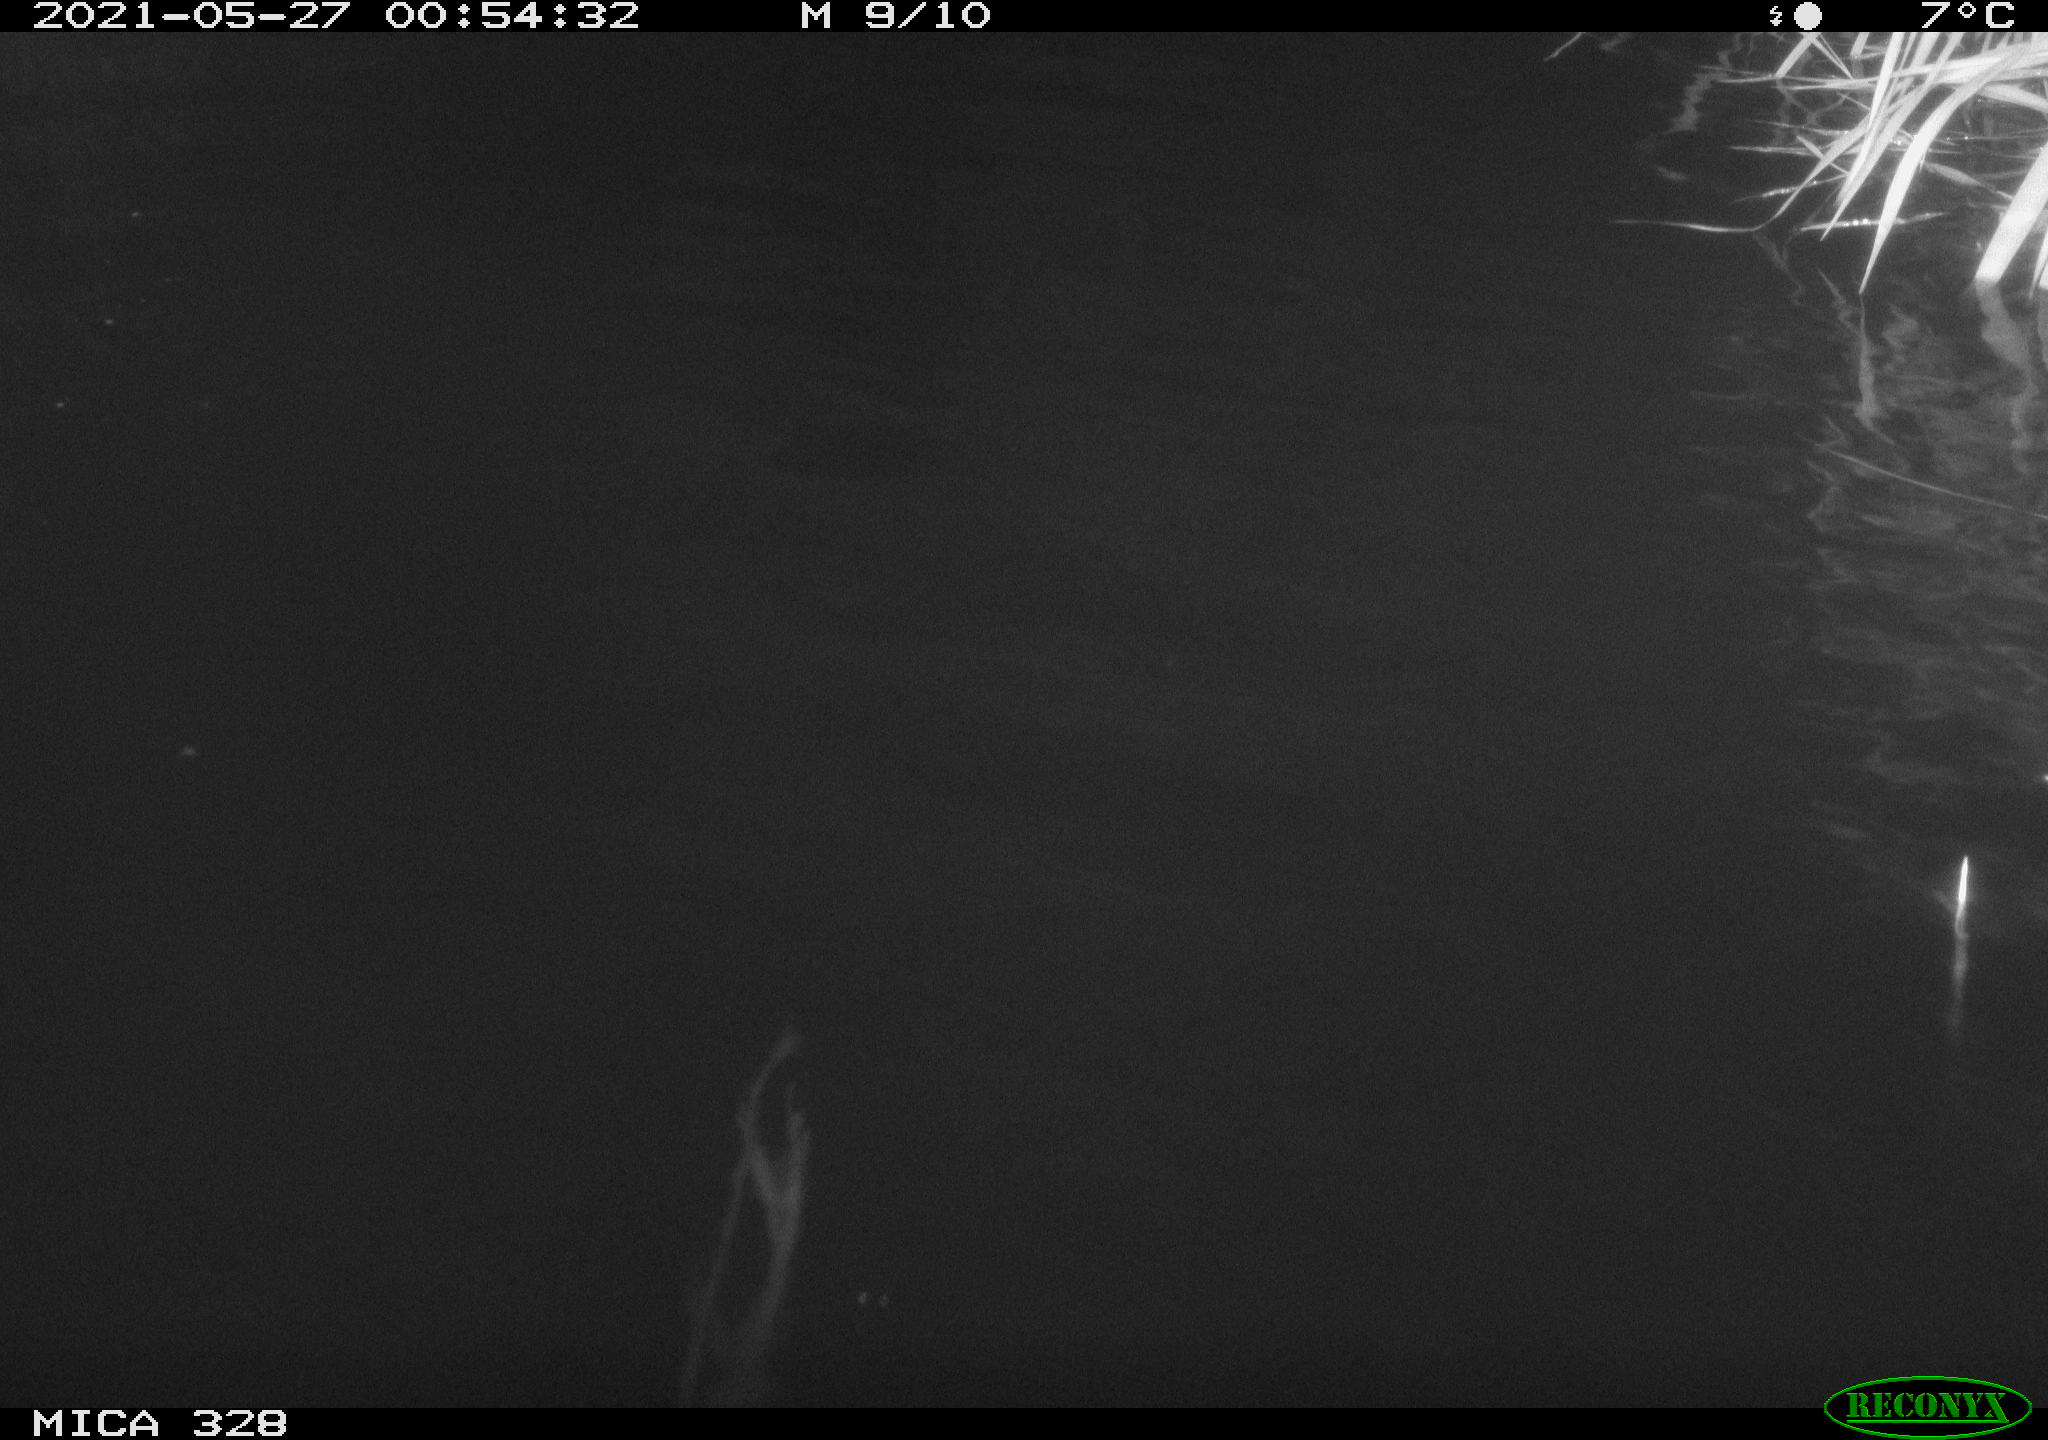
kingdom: Animalia
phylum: Chordata
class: Mammalia
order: Rodentia
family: Cricetidae
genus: Ondatra
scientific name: Ondatra zibethicus
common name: Muskrat
